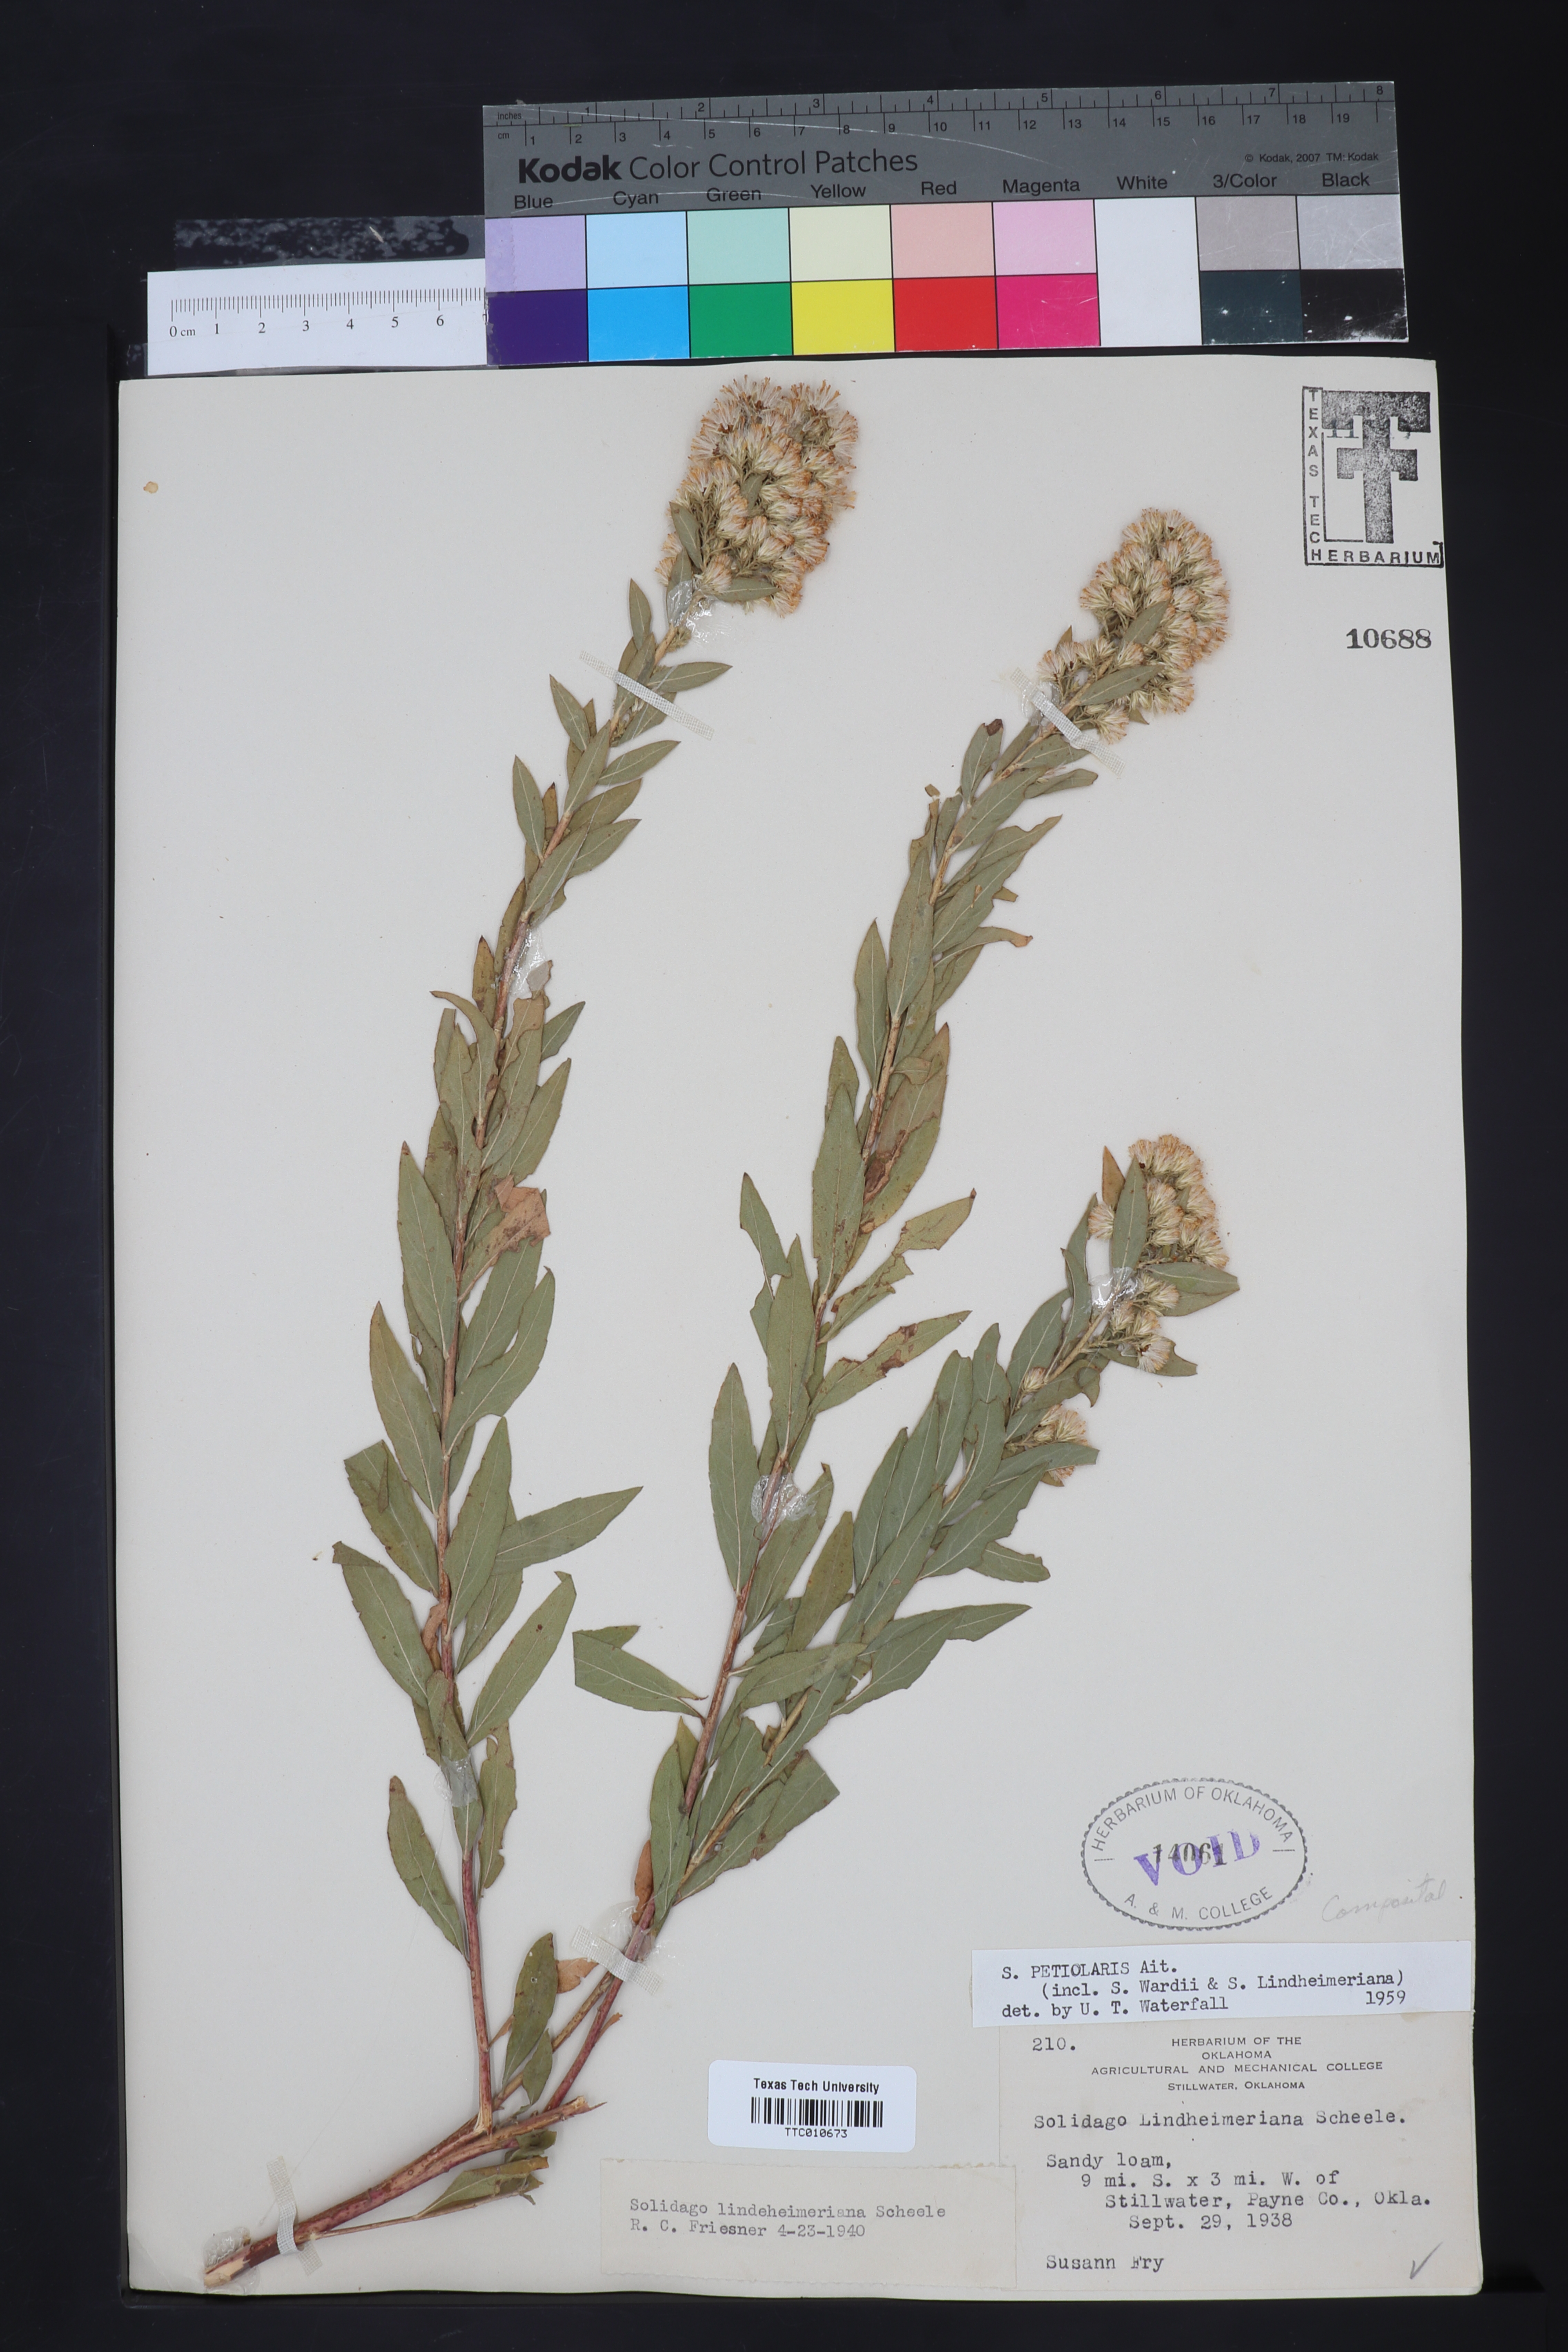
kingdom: Plantae
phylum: Tracheophyta
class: Magnoliopsida
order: Asterales
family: Asteraceae
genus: Solidago
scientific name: Solidago petiolaris
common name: Downy ragged goldenrod
